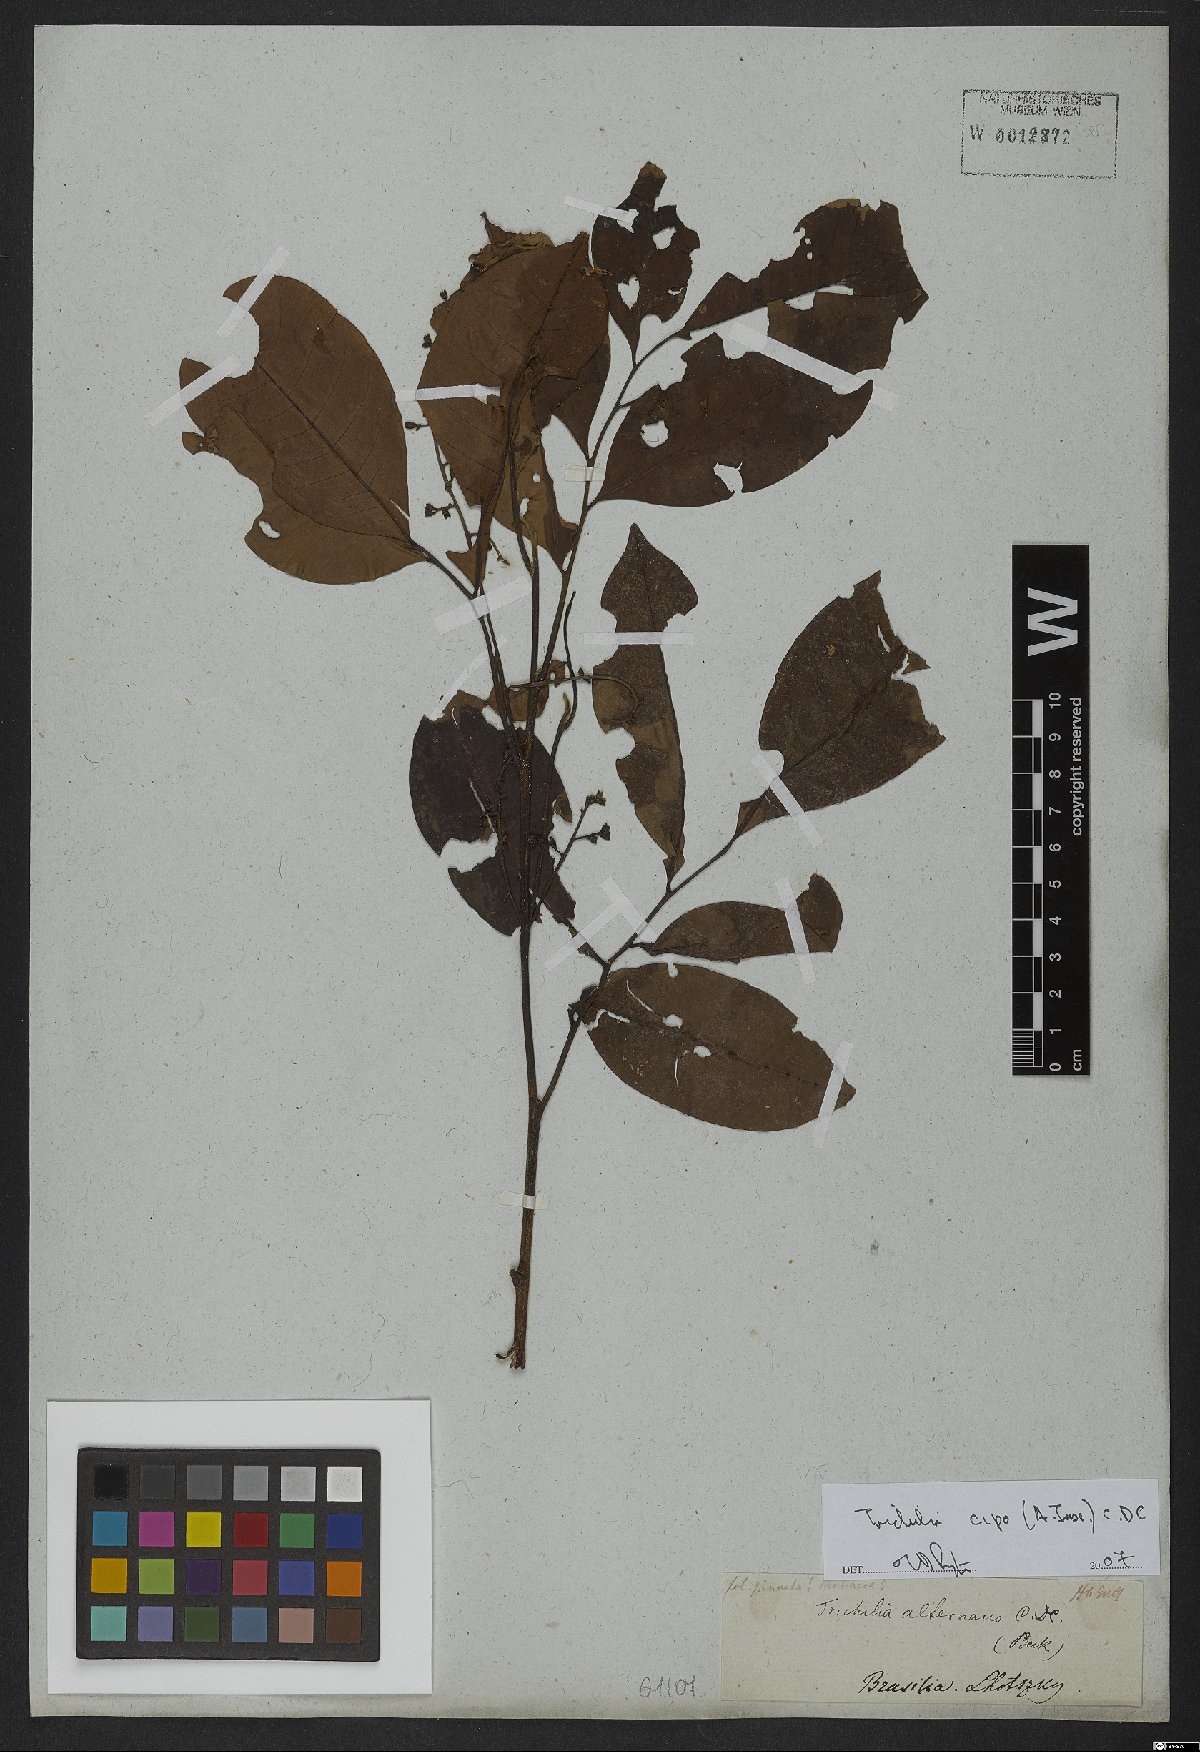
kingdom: Plantae
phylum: Tracheophyta
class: Magnoliopsida
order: Sapindales
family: Meliaceae
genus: Trichilia
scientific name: Trichilia cipo
